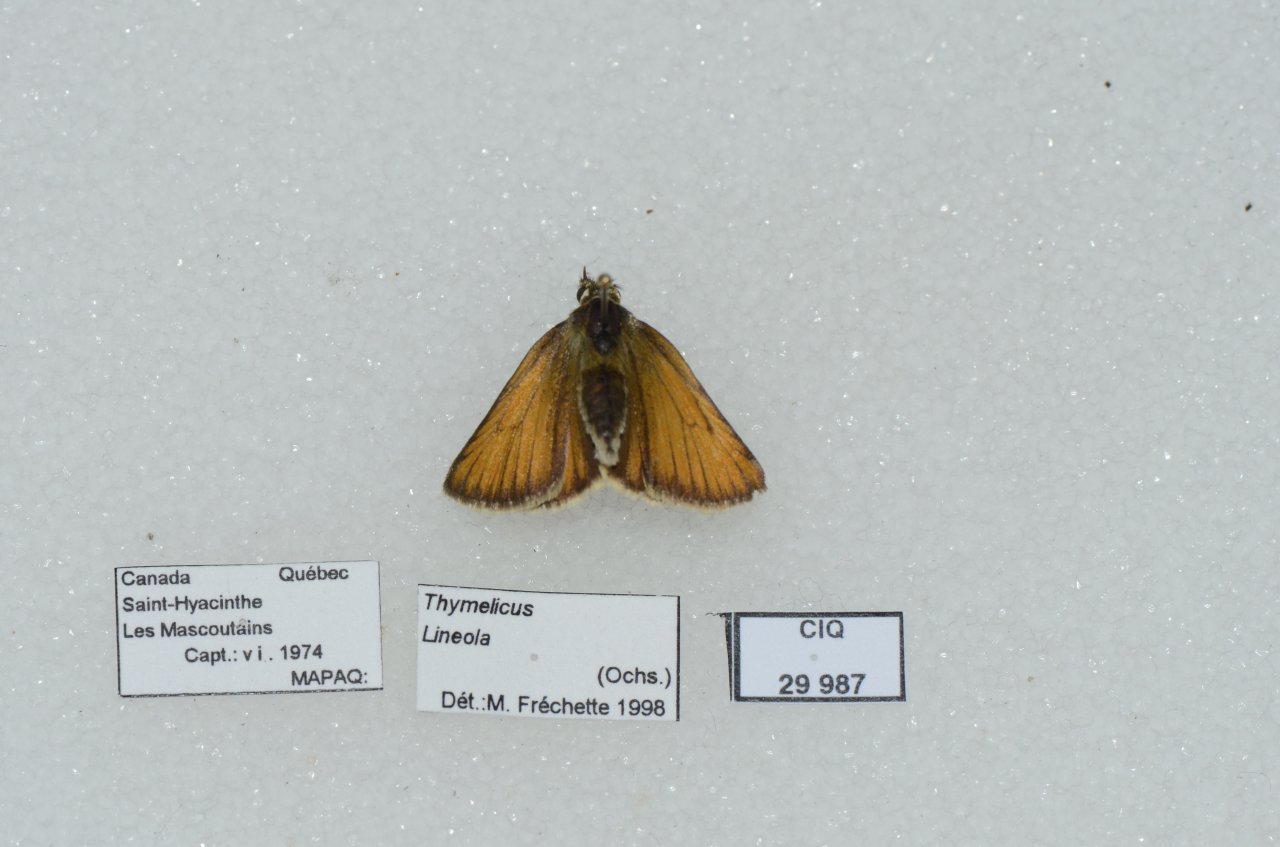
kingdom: Animalia
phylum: Arthropoda
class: Insecta
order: Lepidoptera
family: Hesperiidae
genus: Thymelicus
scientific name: Thymelicus lineola
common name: European Skipper
